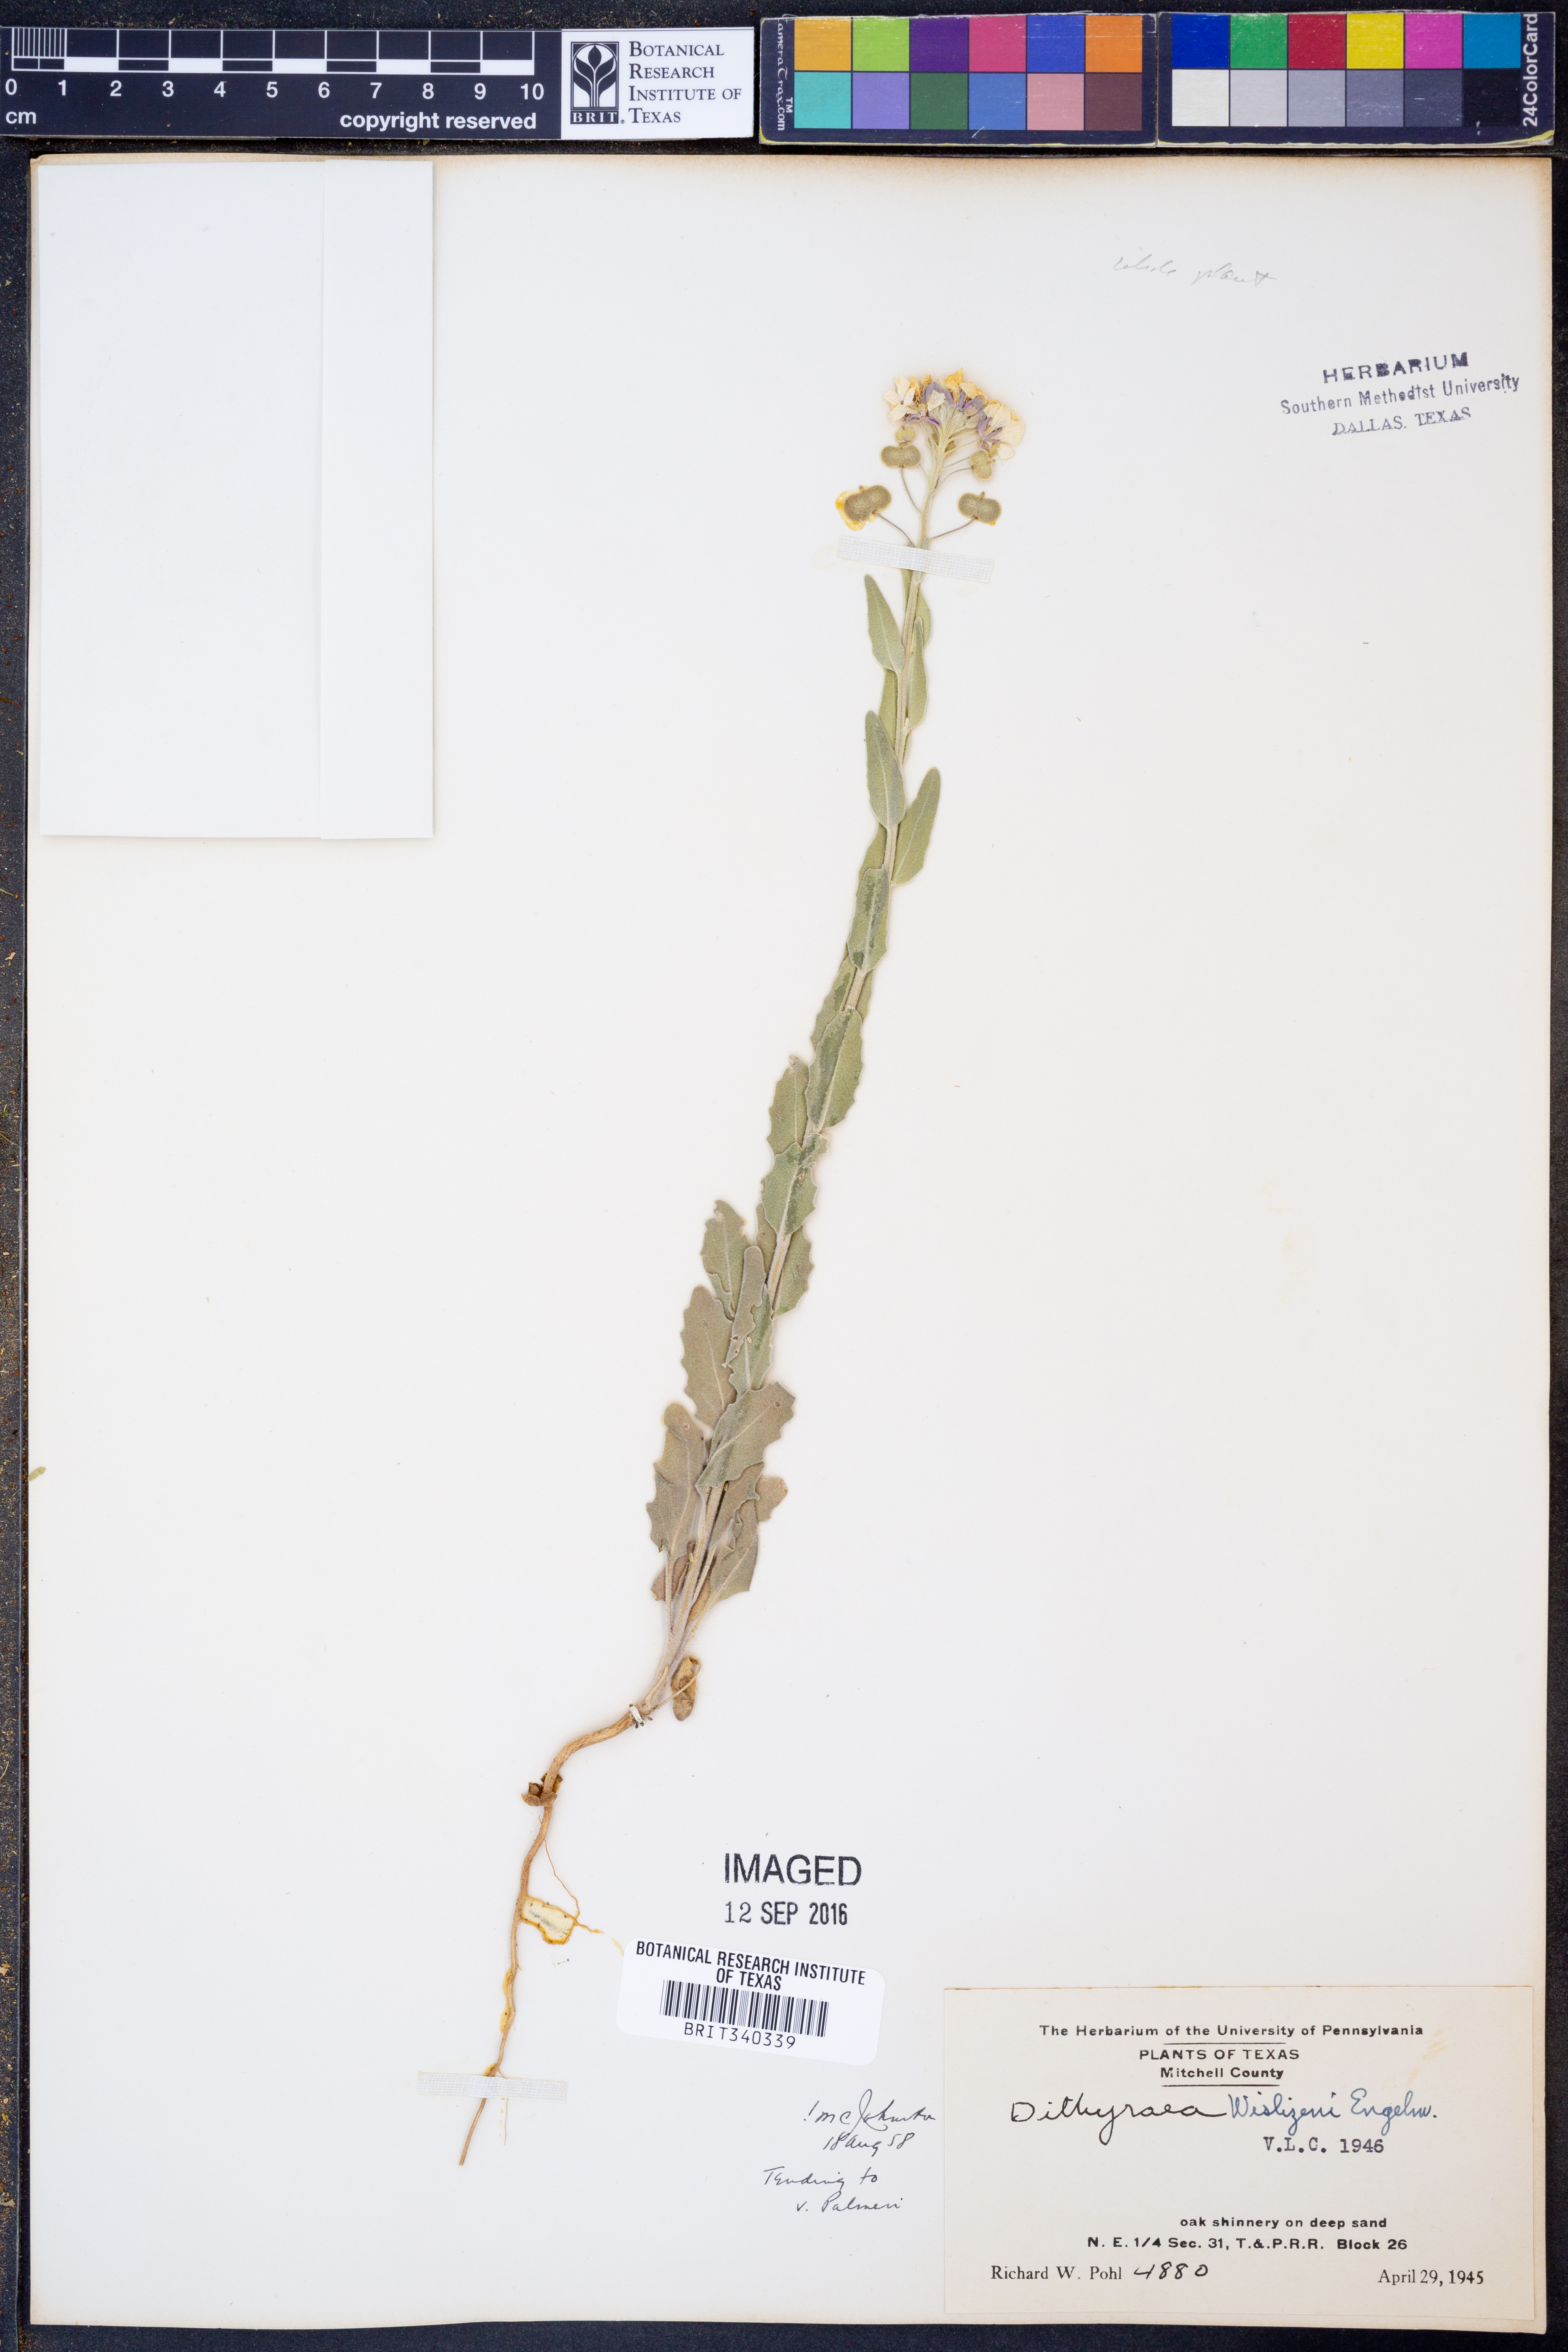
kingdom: Plantae
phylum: Tracheophyta
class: Magnoliopsida
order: Brassicales
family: Brassicaceae
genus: Dimorphocarpa
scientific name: Dimorphocarpa wislizenii
